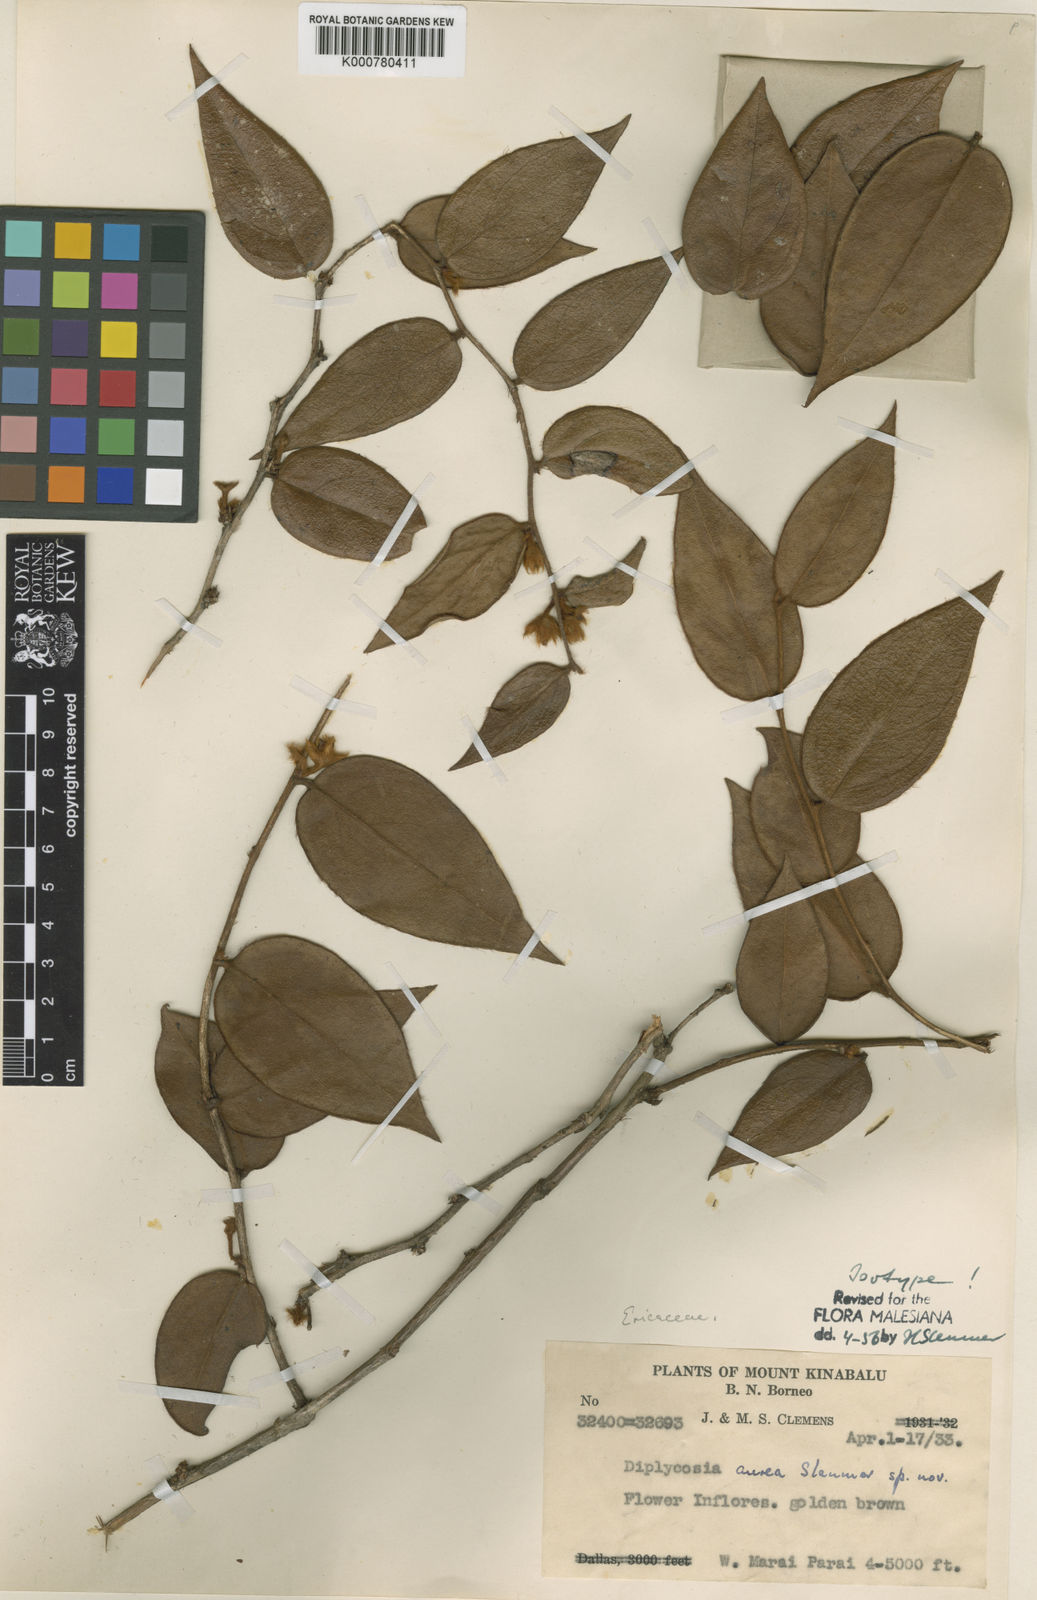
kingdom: Plantae
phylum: Tracheophyta
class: Magnoliopsida
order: Ericales
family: Ericaceae
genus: Gaultheria
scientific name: Gaultheria aurea
